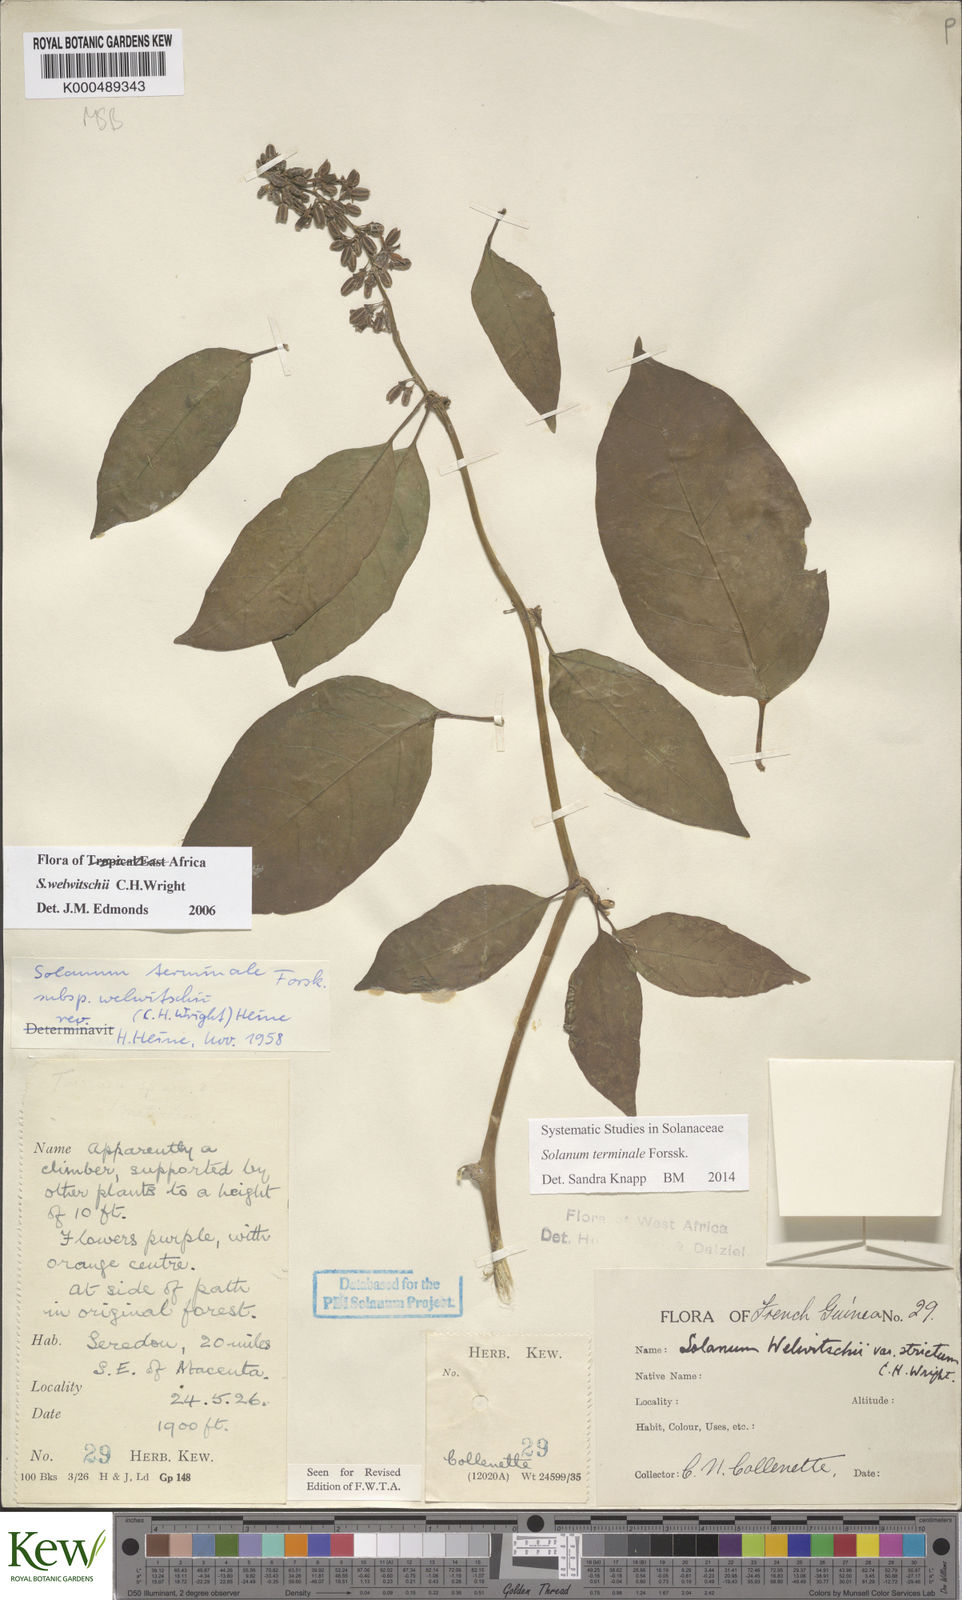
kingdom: Plantae
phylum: Tracheophyta
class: Magnoliopsida
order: Solanales
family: Solanaceae
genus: Solanum
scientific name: Solanum terminale
